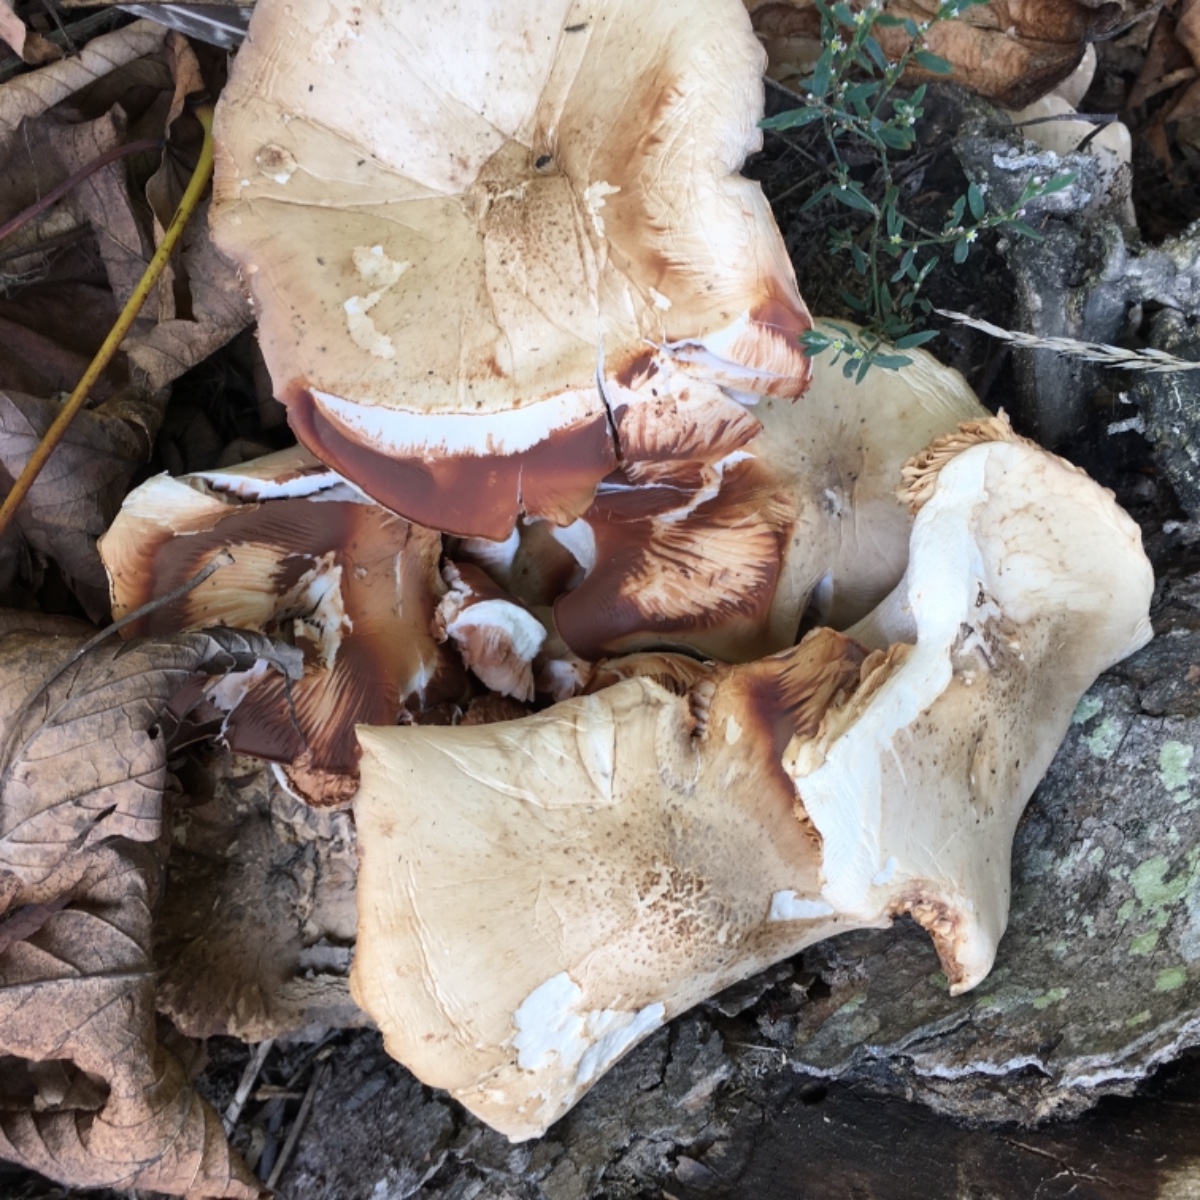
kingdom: Fungi
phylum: Basidiomycota
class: Agaricomycetes
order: Agaricales
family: Pluteaceae
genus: Pluteus
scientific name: Pluteus
